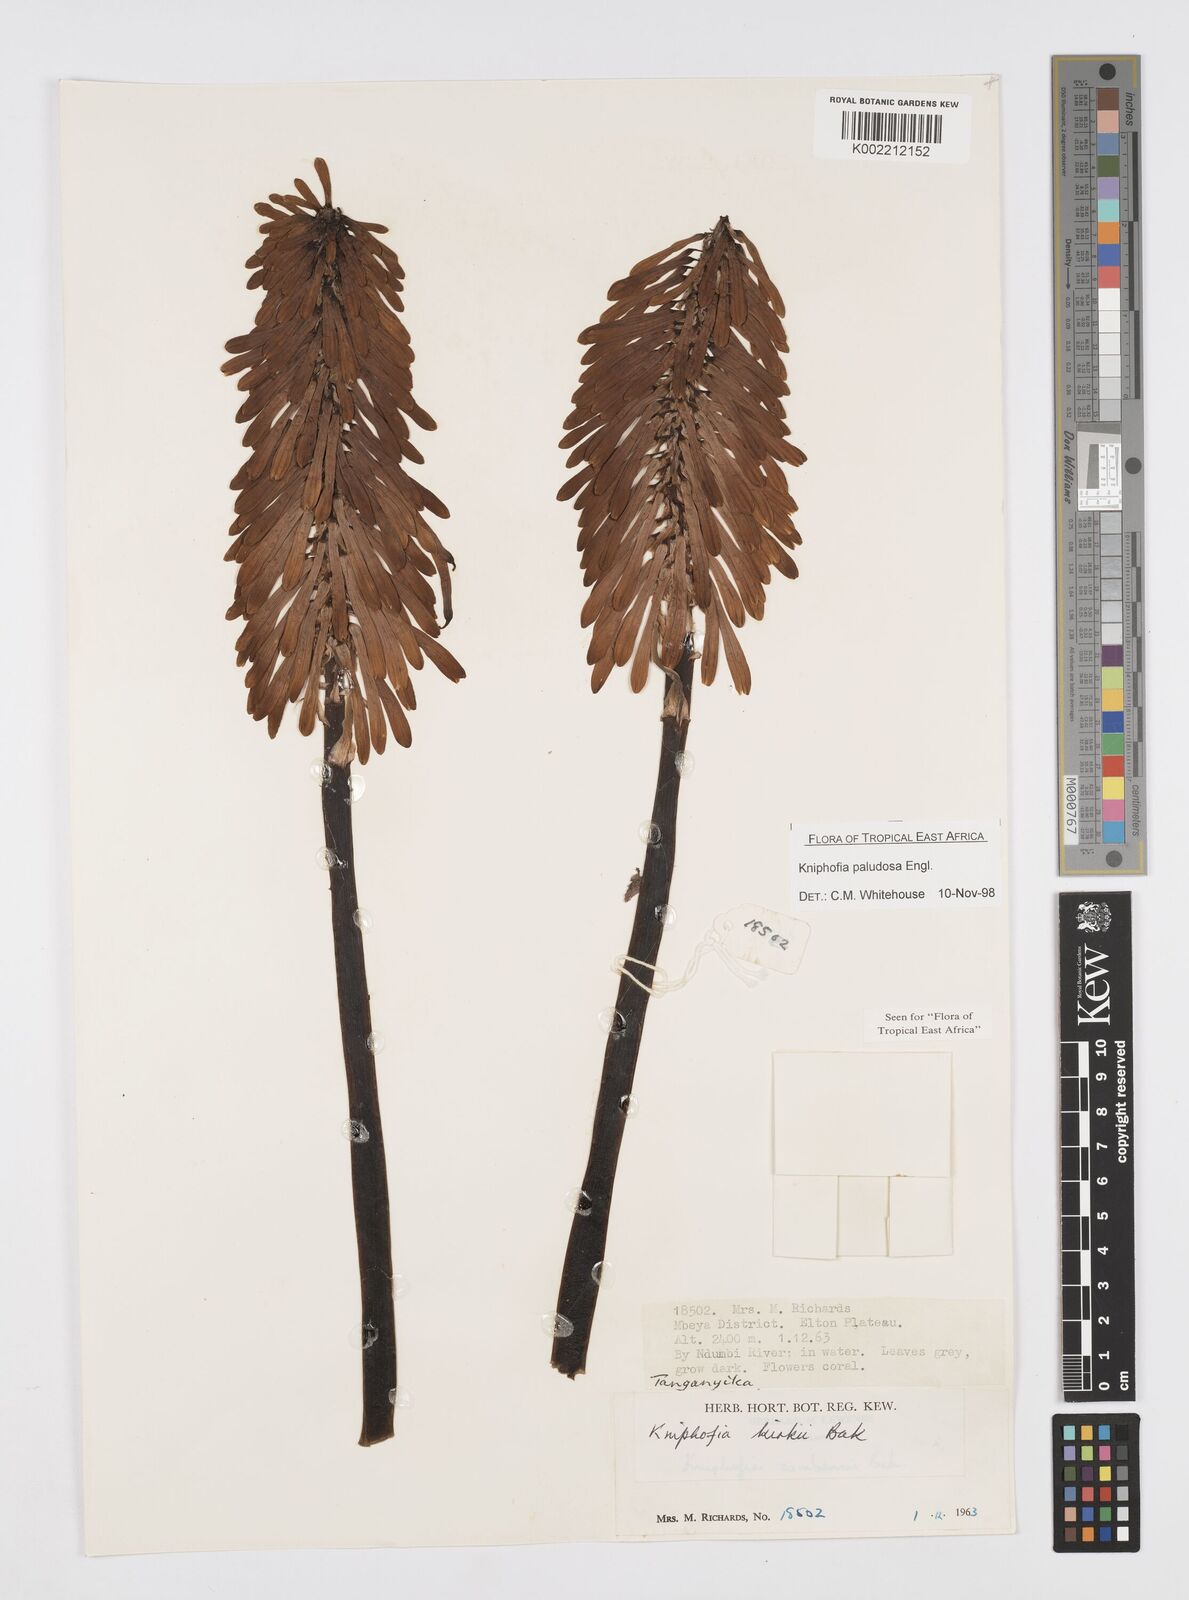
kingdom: Plantae
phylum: Tracheophyta
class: Liliopsida
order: Asparagales
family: Asphodelaceae
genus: Kniphofia
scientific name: Kniphofia paludosa
